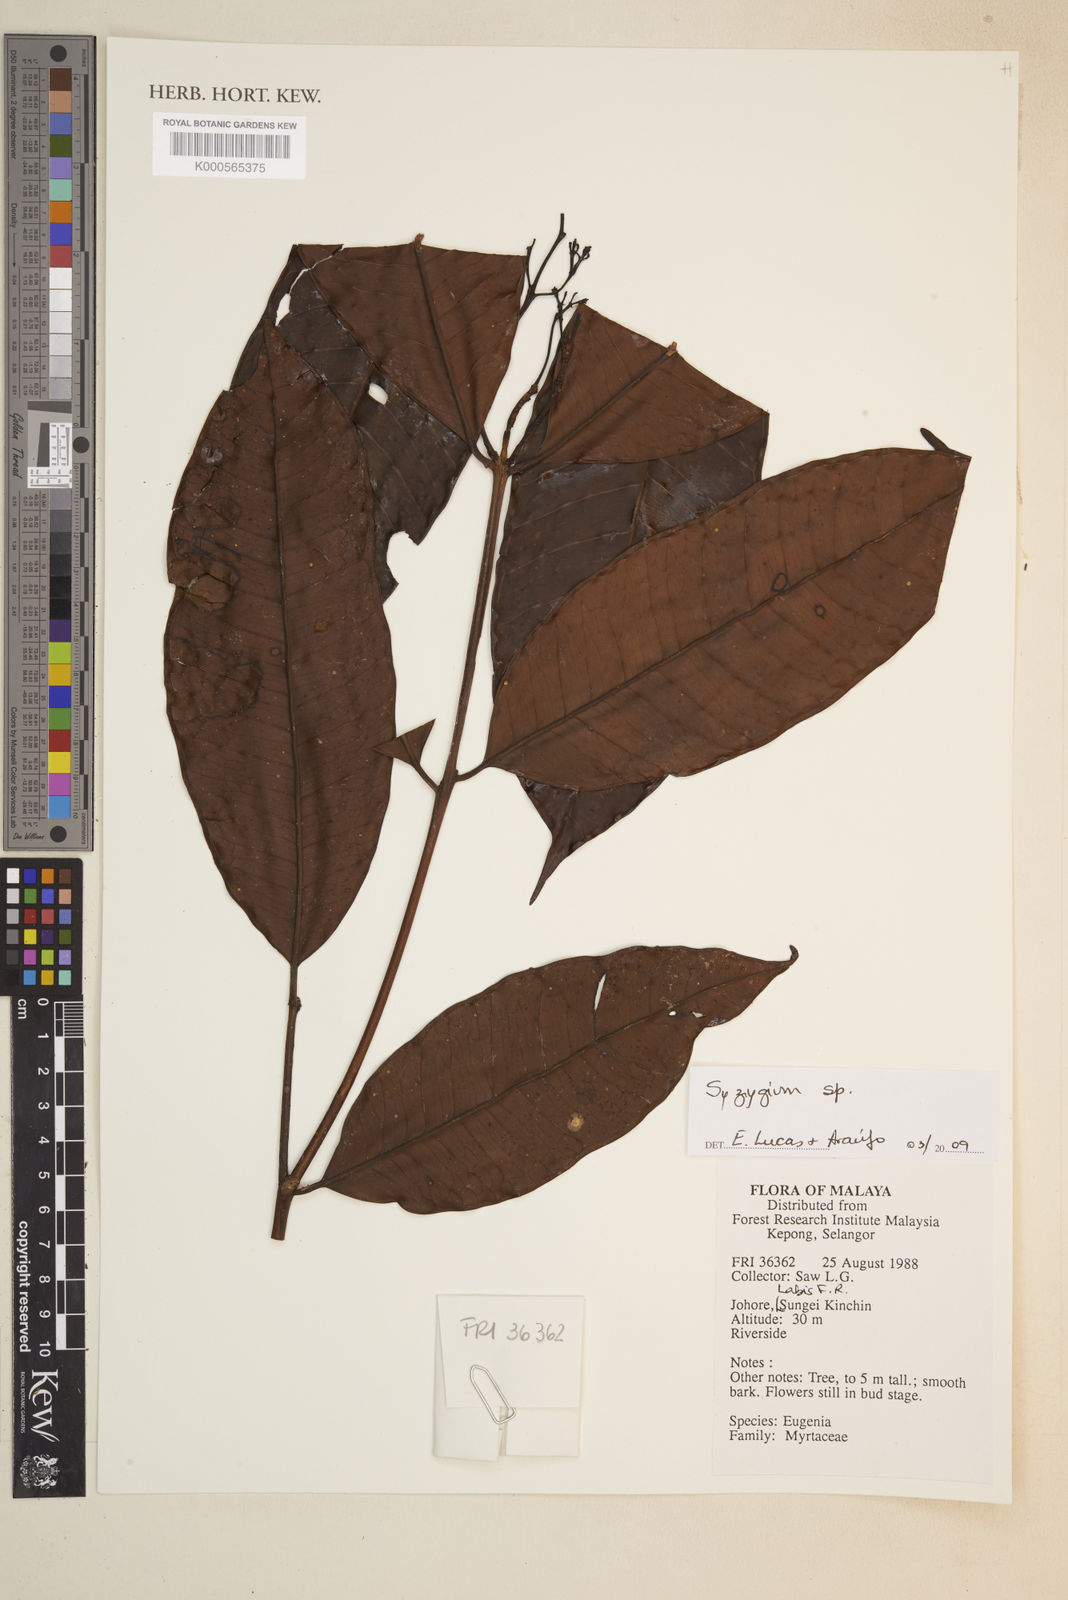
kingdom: Plantae
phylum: Tracheophyta
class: Magnoliopsida
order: Myrtales
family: Myrtaceae
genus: Syzygium
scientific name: Syzygium
